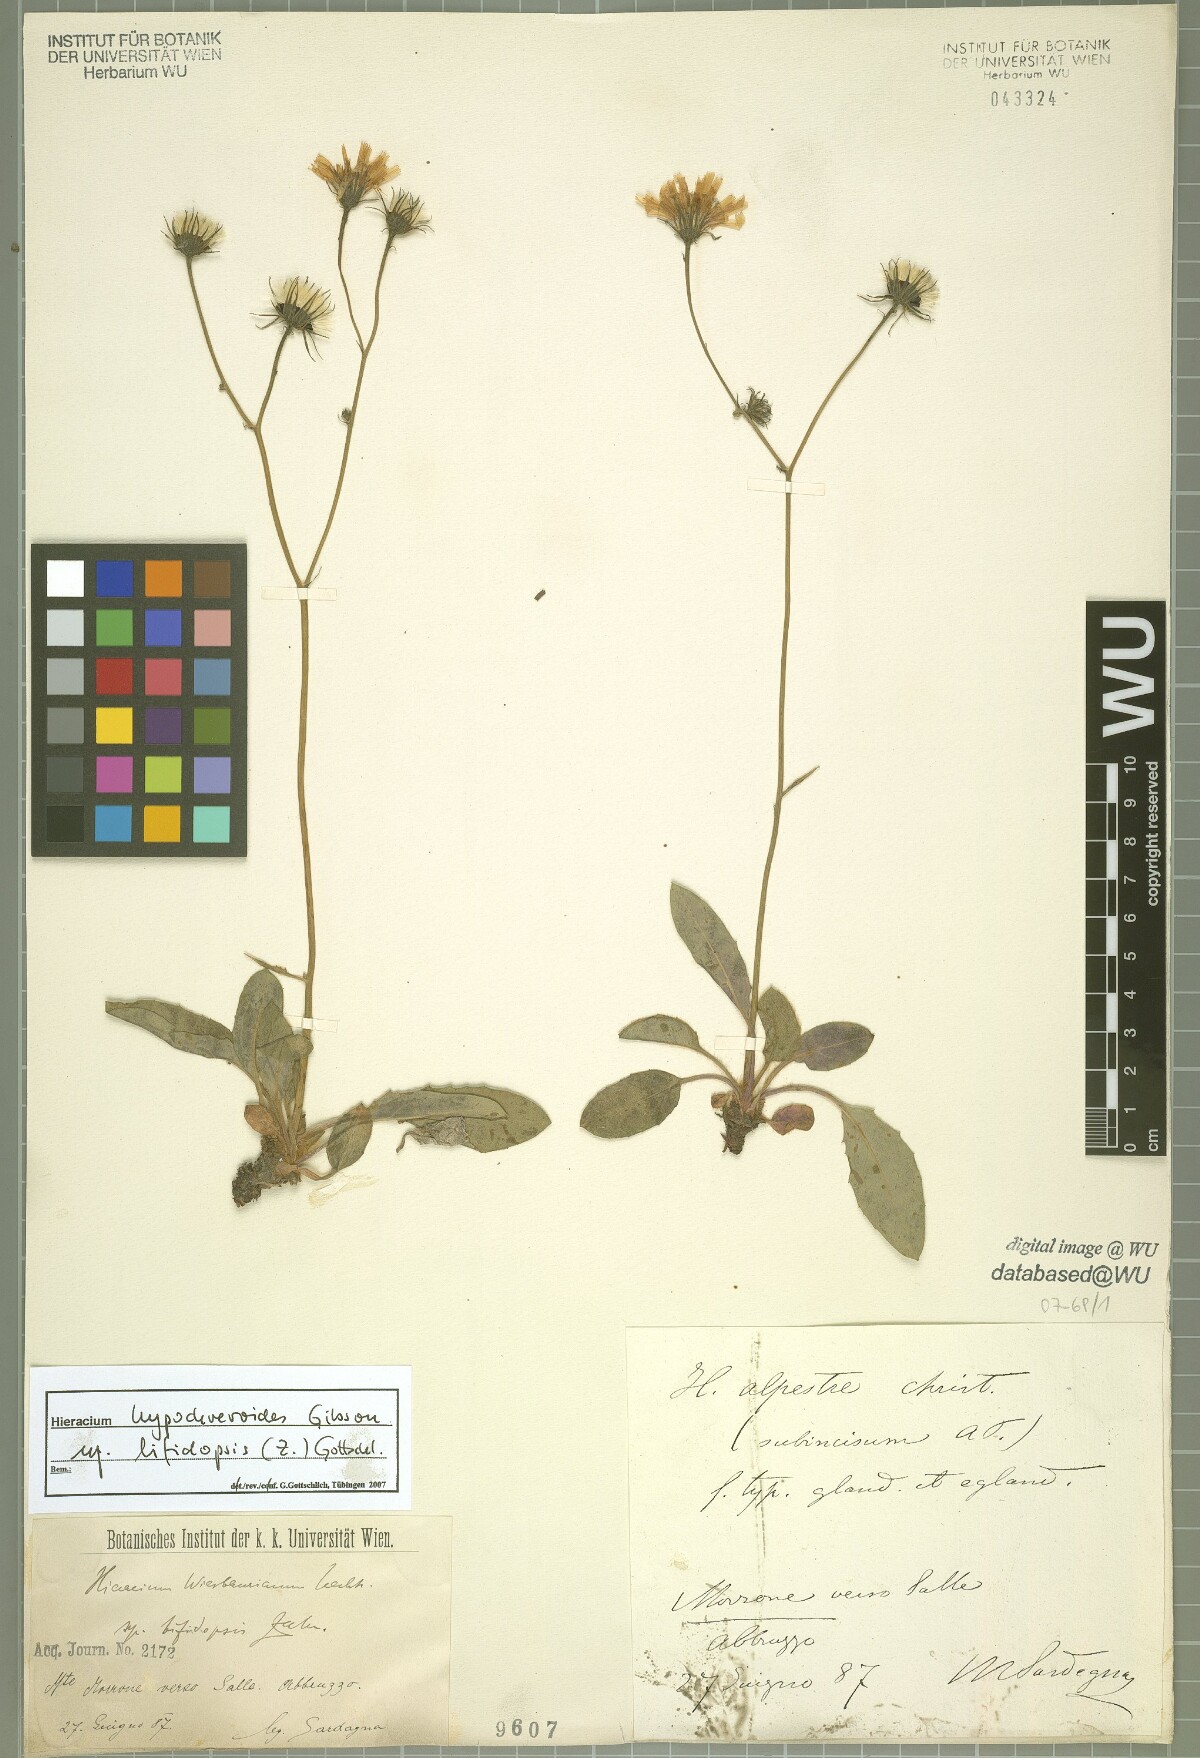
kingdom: Plantae
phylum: Tracheophyta
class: Magnoliopsida
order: Asterales
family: Asteraceae
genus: Hieracium
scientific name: Hieracium hypochoeroides
